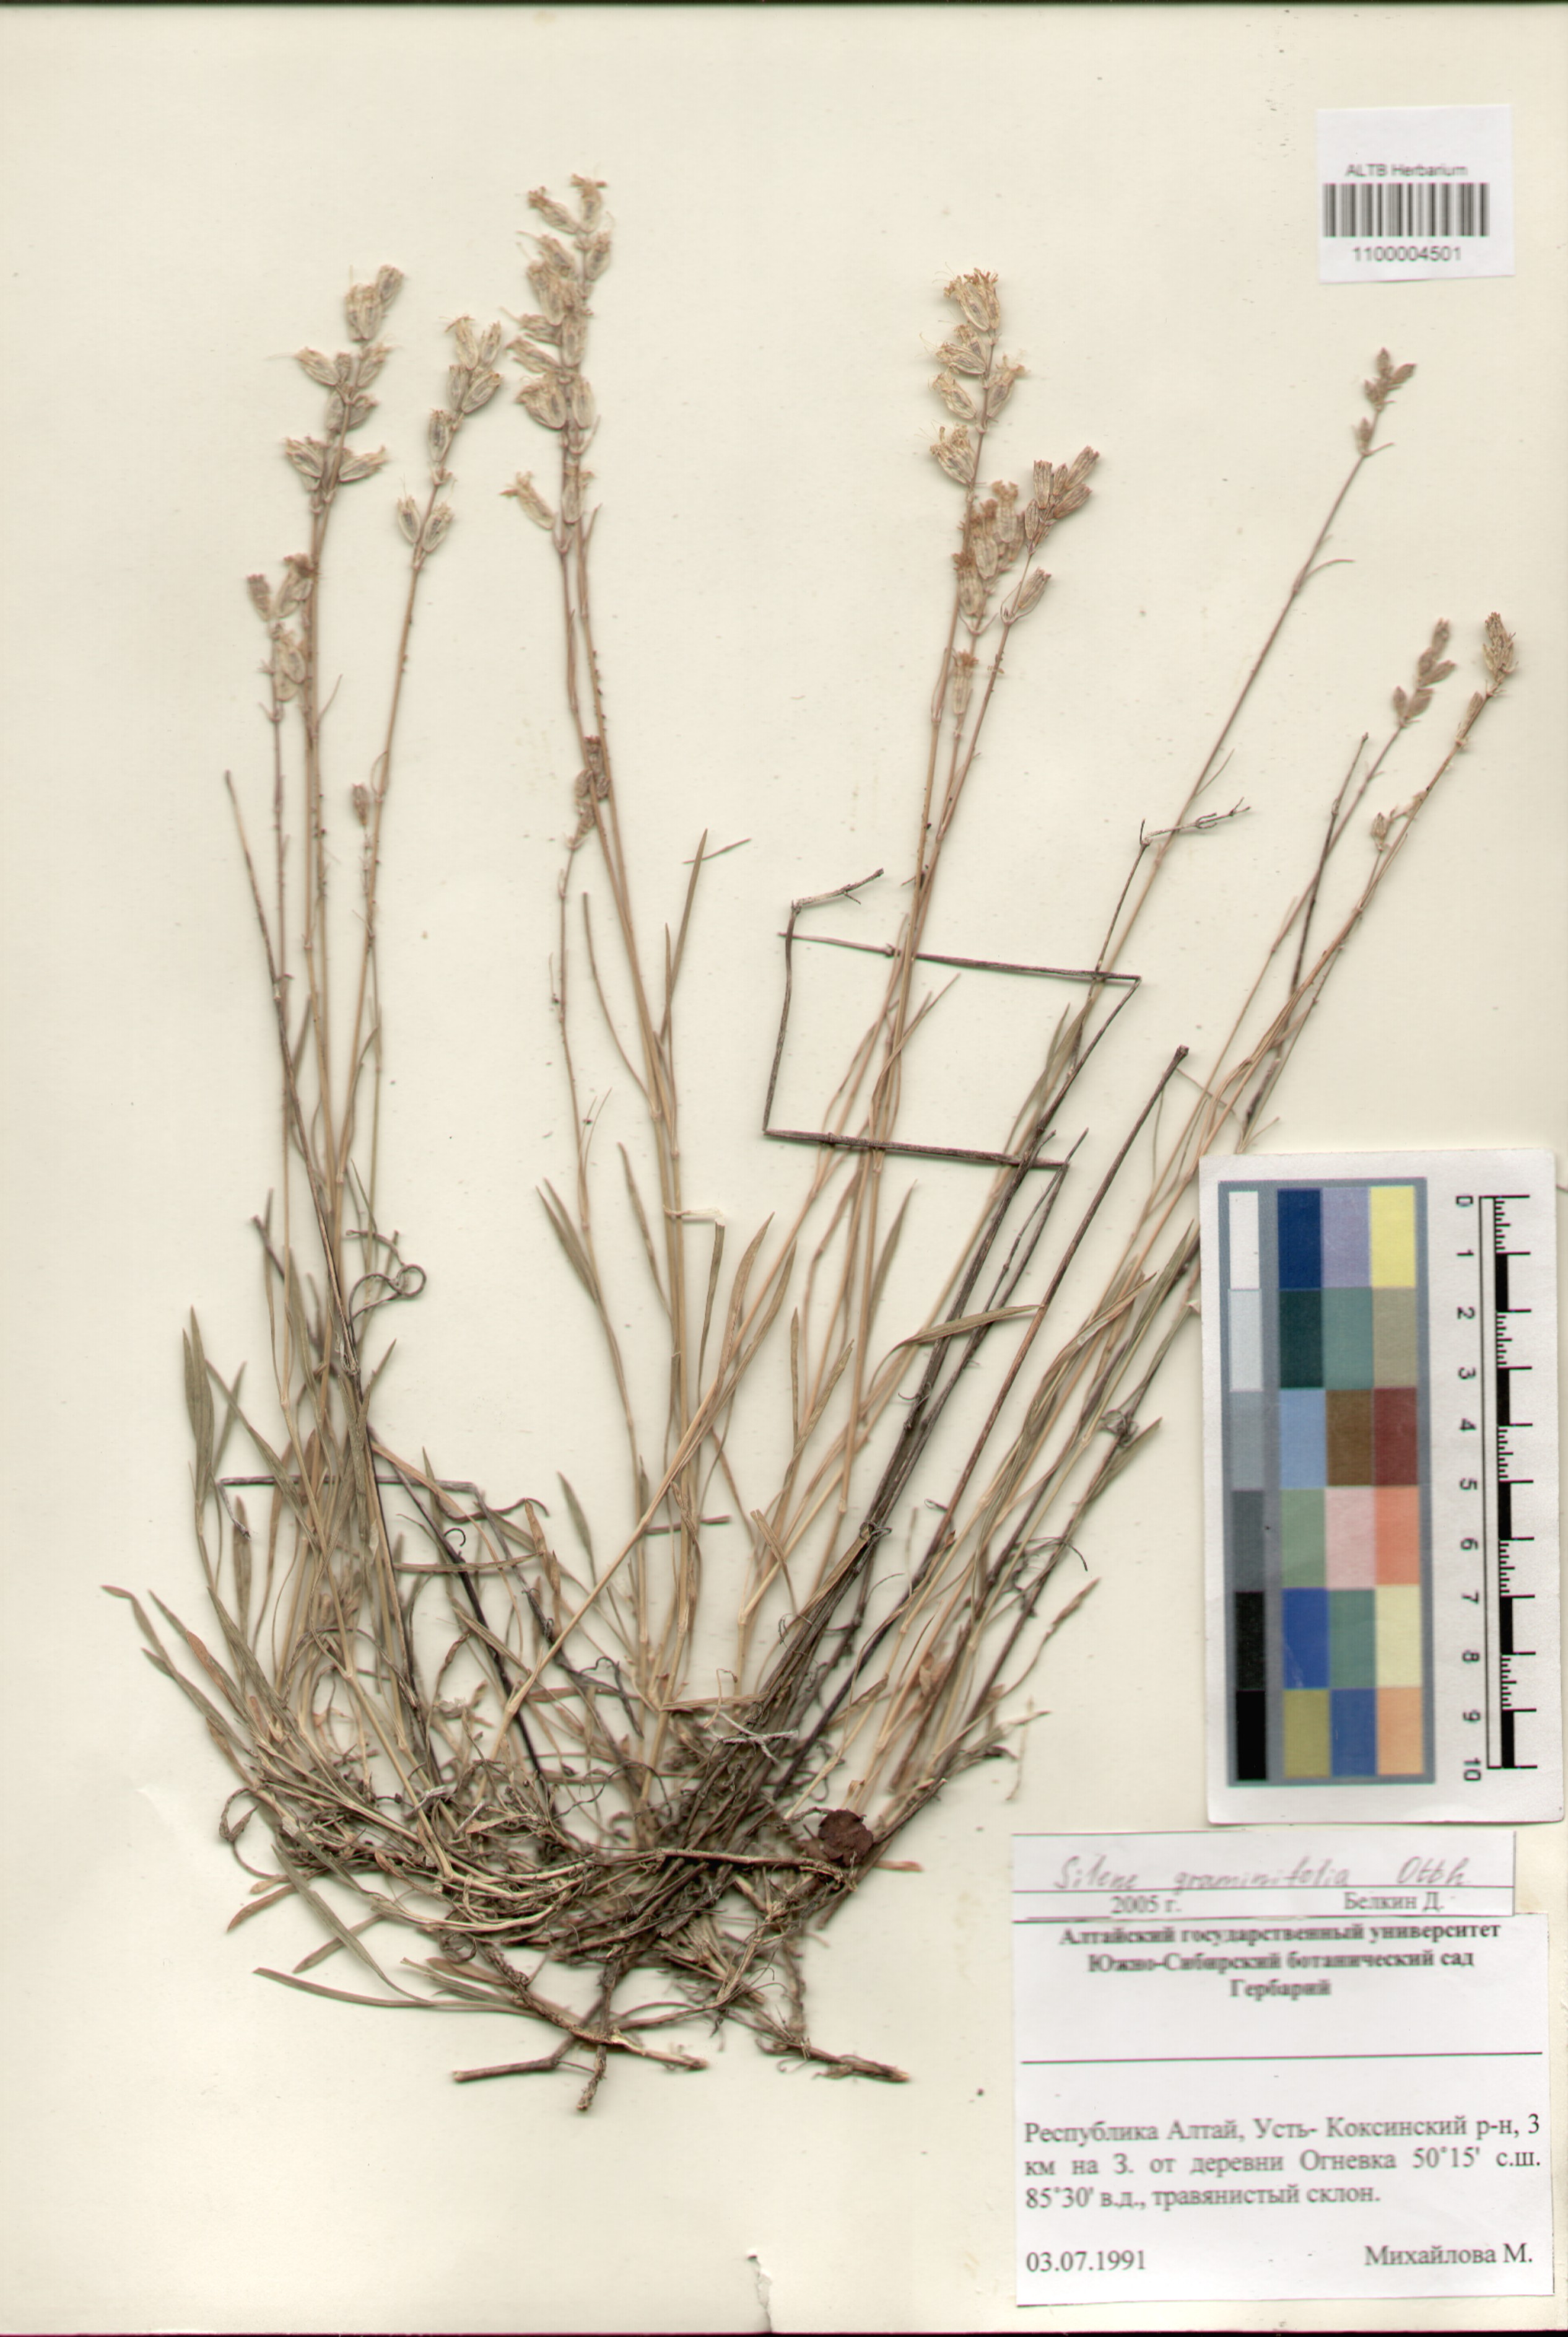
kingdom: Plantae
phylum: Tracheophyta
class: Magnoliopsida
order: Caryophyllales
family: Caryophyllaceae
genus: Silene
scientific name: Silene graminifolia
